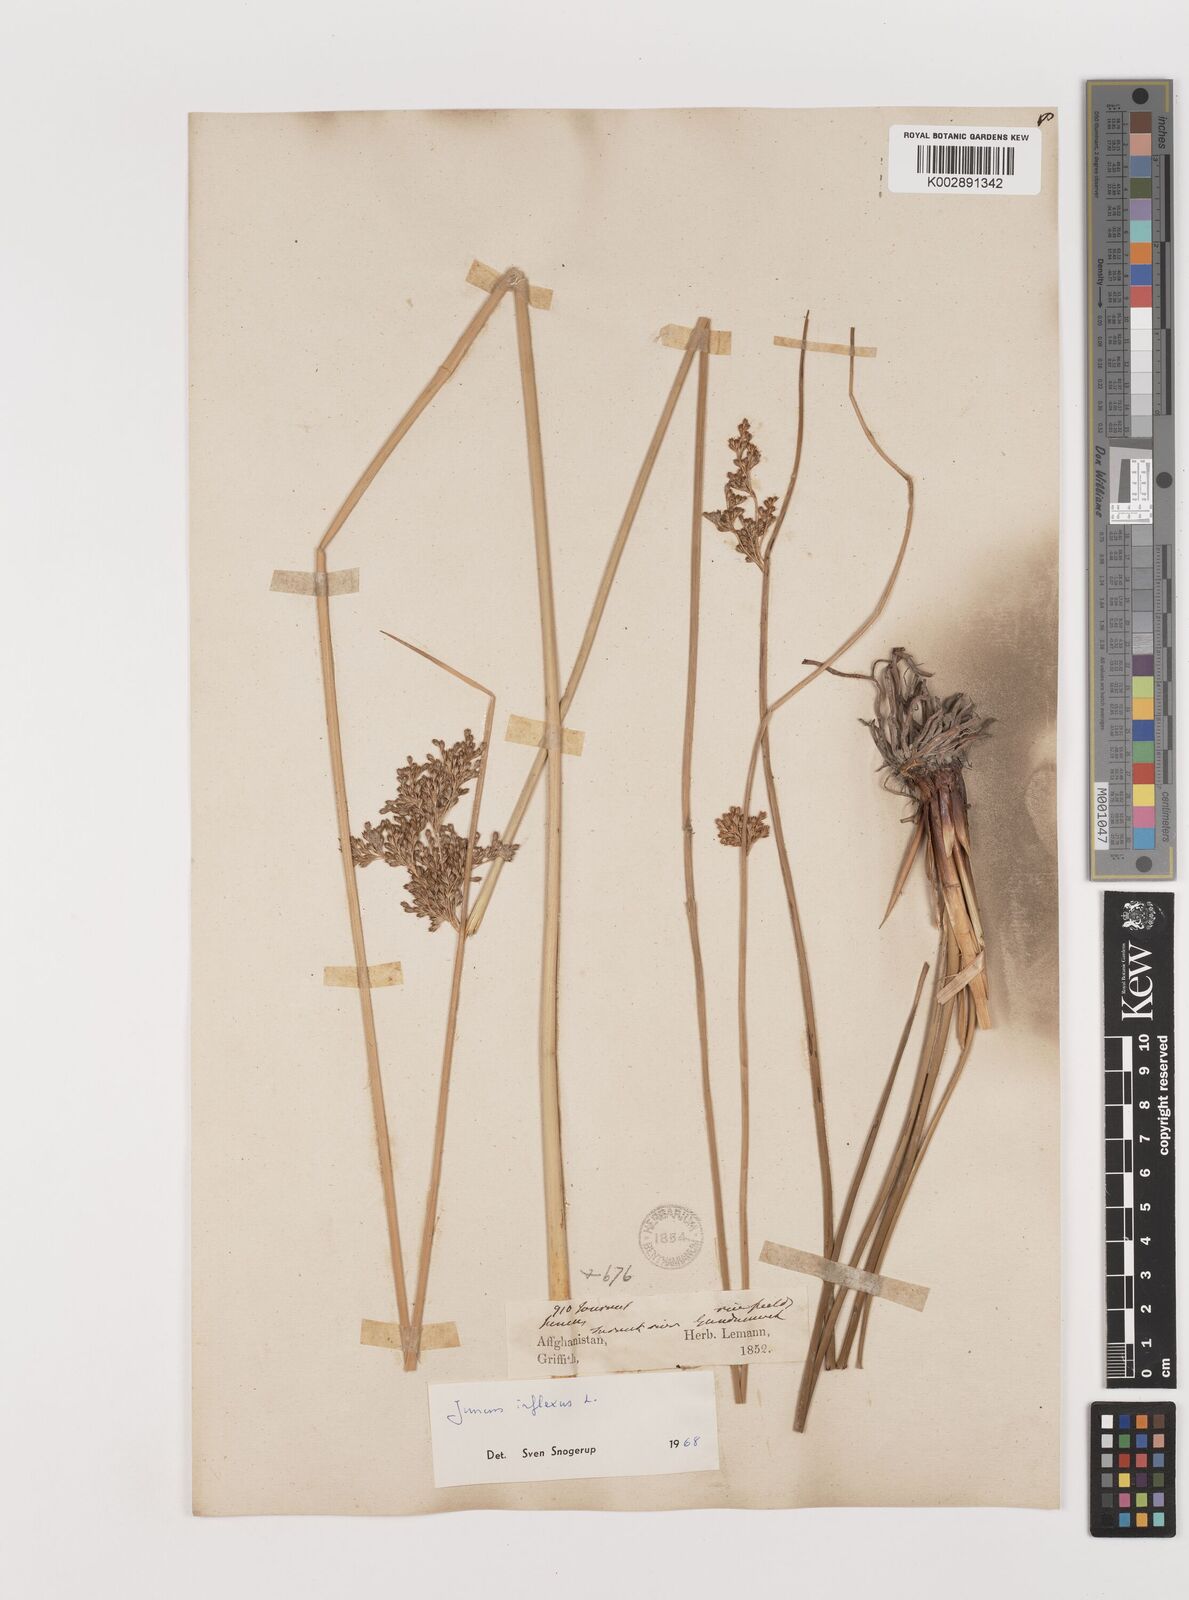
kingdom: Plantae
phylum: Tracheophyta
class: Liliopsida
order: Poales
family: Juncaceae
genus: Juncus
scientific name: Juncus inflexus
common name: Hard rush
